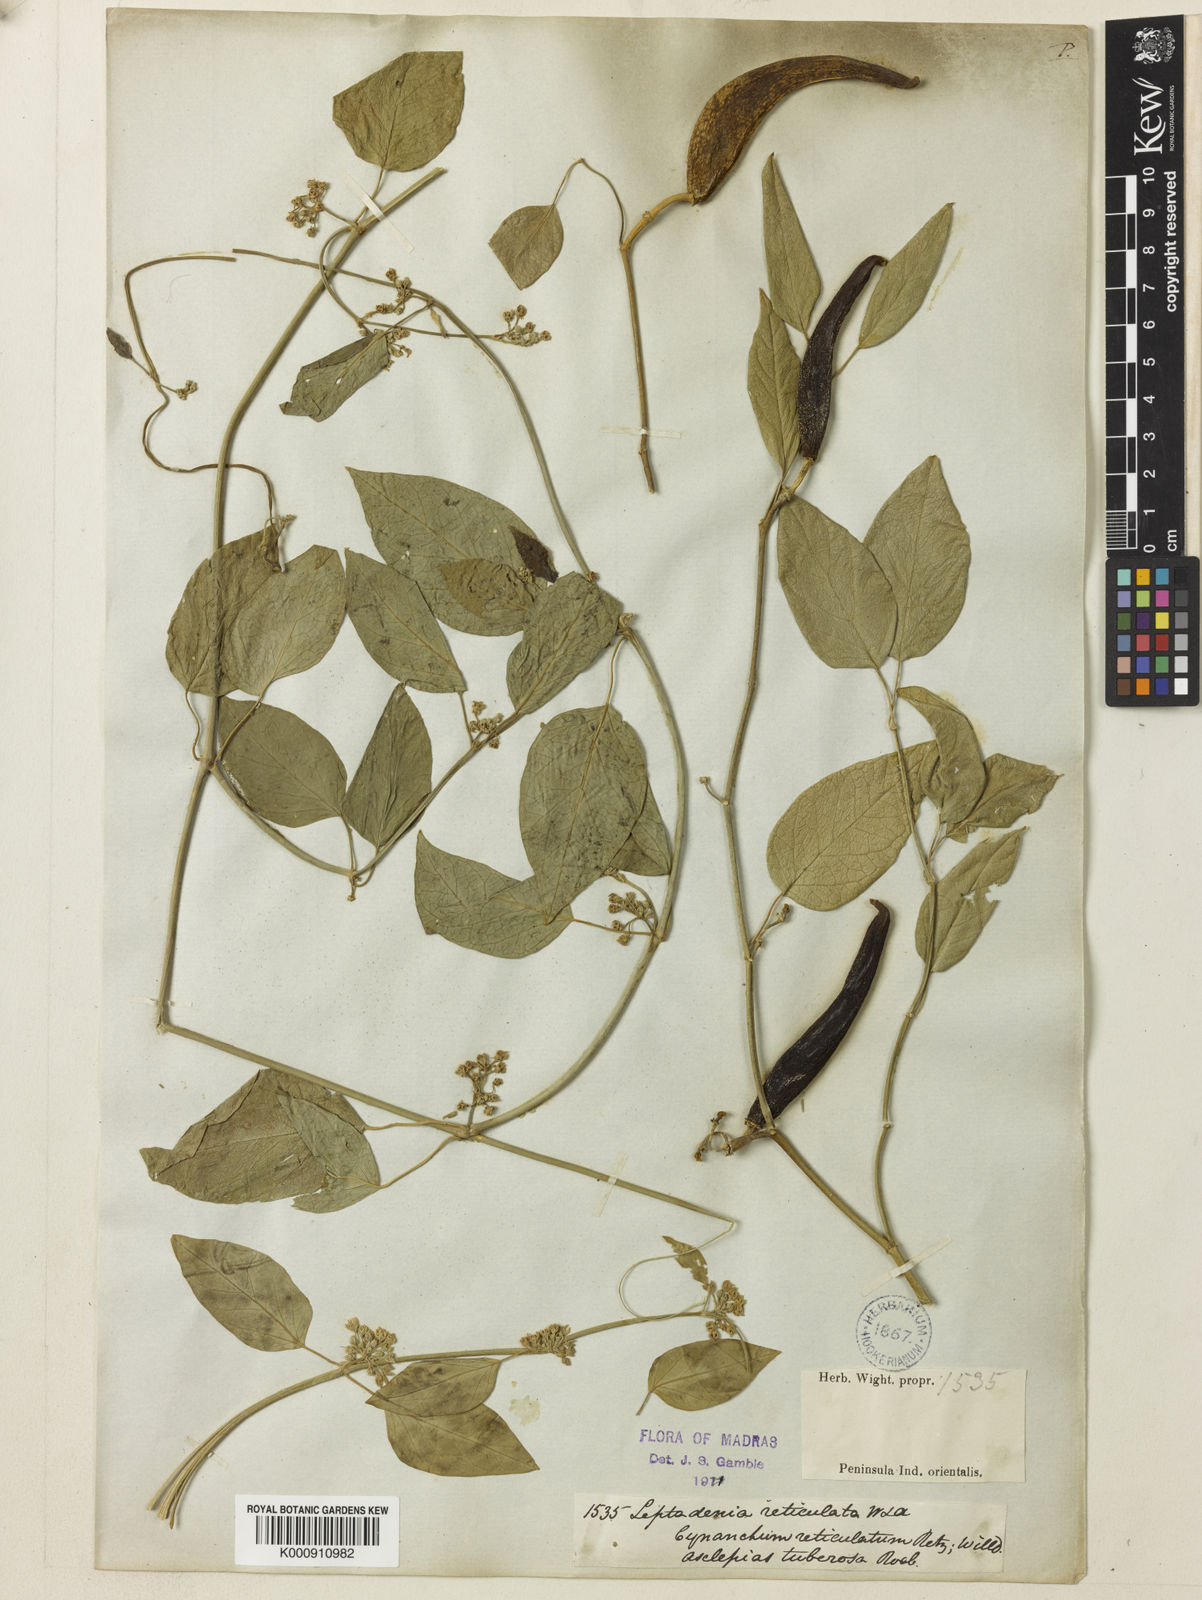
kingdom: Plantae
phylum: Tracheophyta
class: Magnoliopsida
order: Gentianales
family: Apocynaceae
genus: Leptadenia
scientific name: Leptadenia reticulata
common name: Leptadenia
